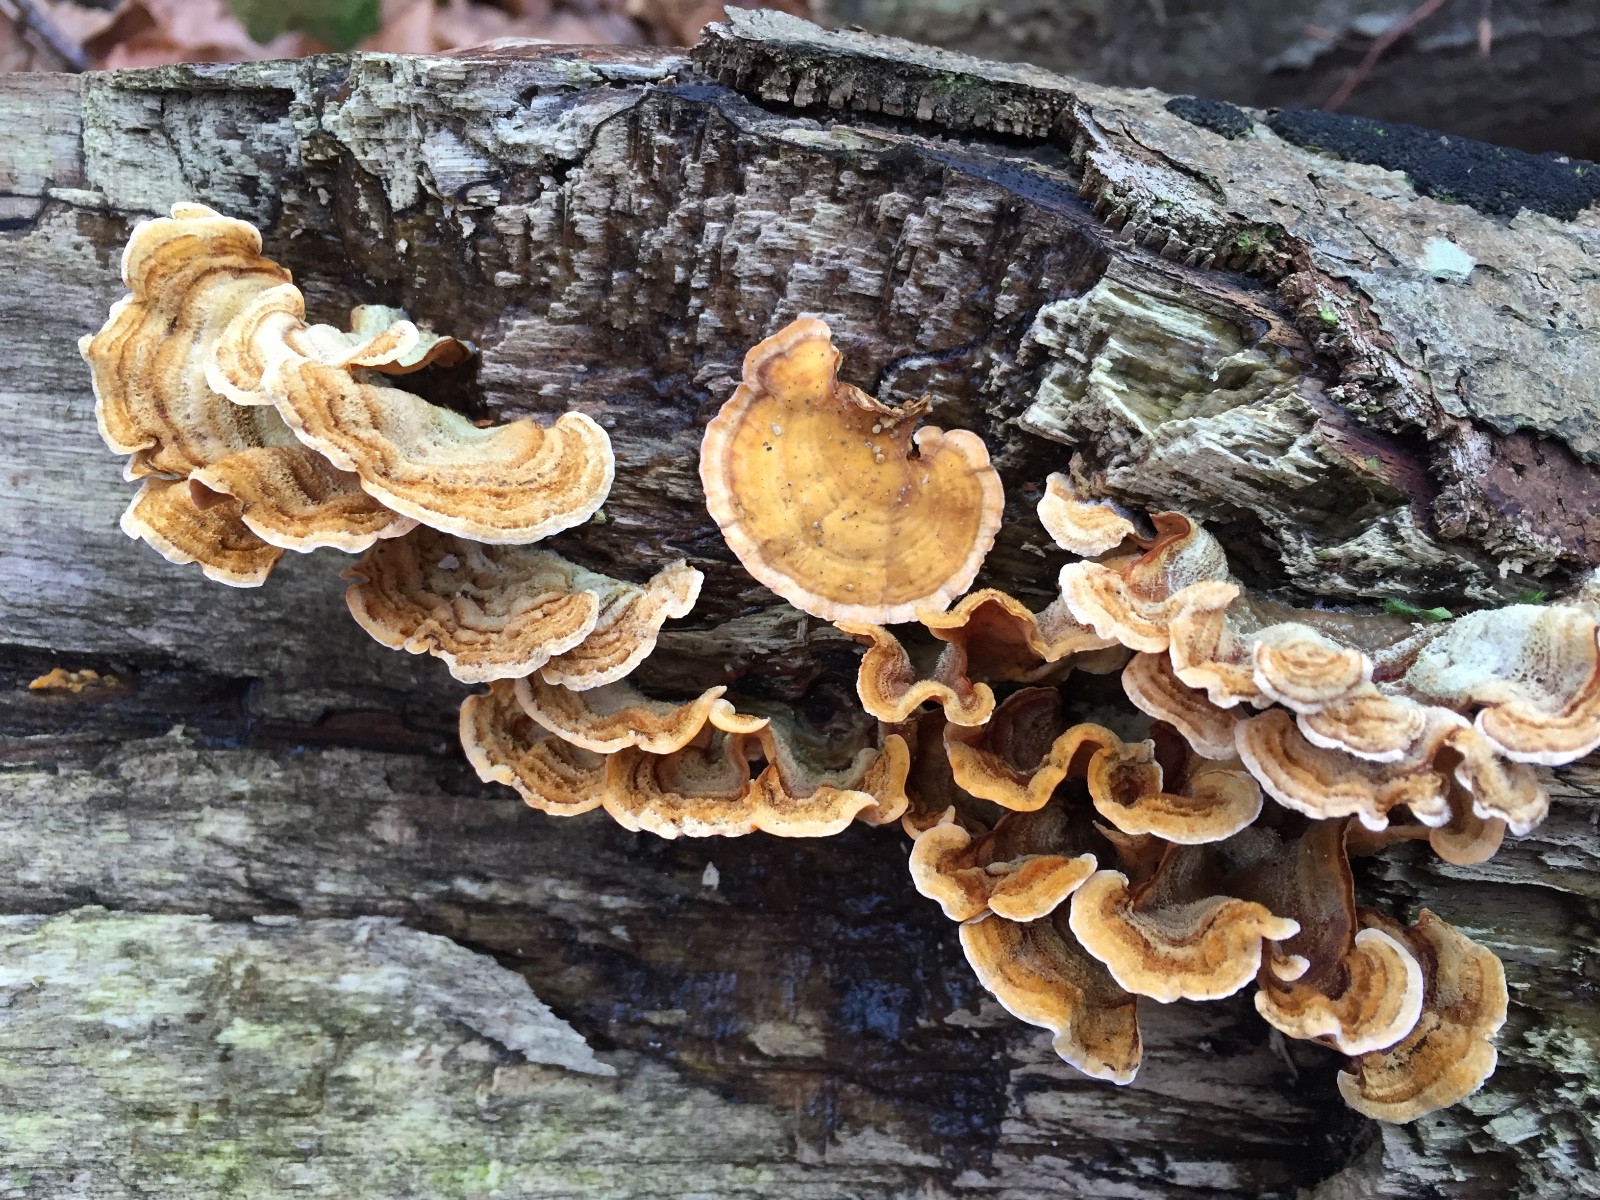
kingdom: Fungi
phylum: Basidiomycota
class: Agaricomycetes
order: Russulales
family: Stereaceae
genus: Stereum
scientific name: Stereum subtomentosum
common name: smuk lædersvamp
